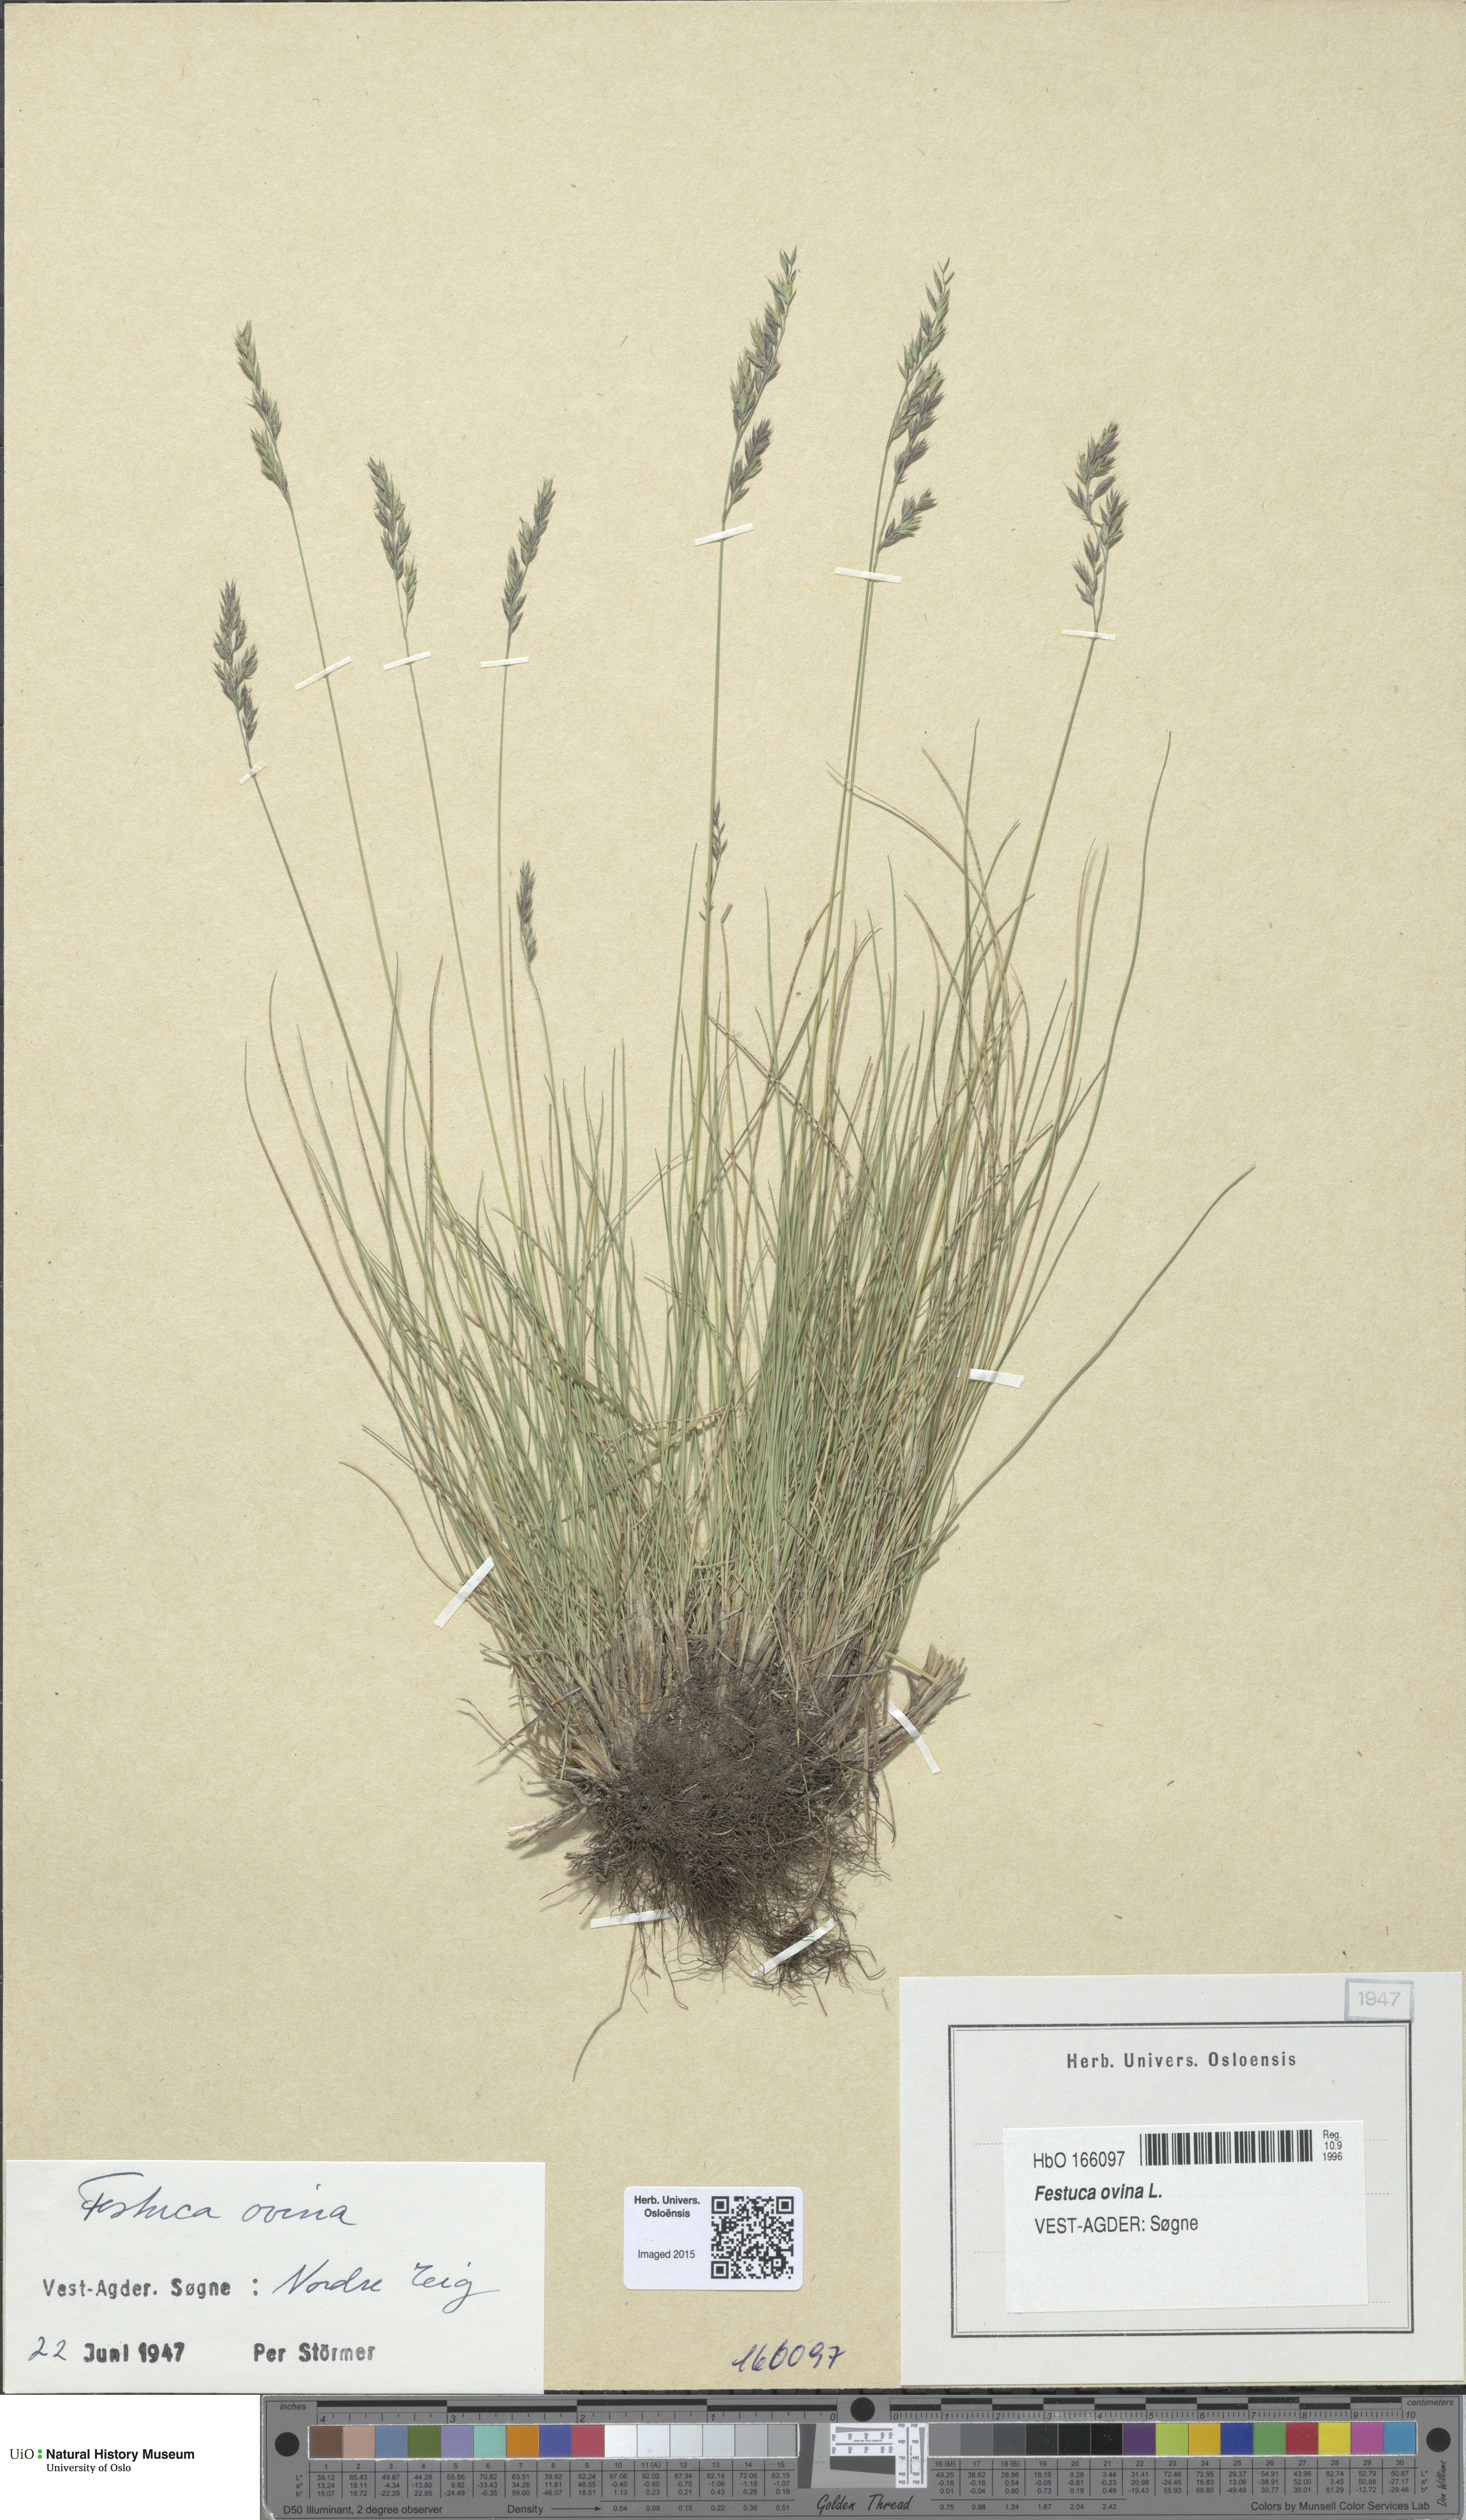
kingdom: Plantae
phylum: Tracheophyta
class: Liliopsida
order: Poales
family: Poaceae
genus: Festuca
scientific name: Festuca ovina
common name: Sheep fescue
